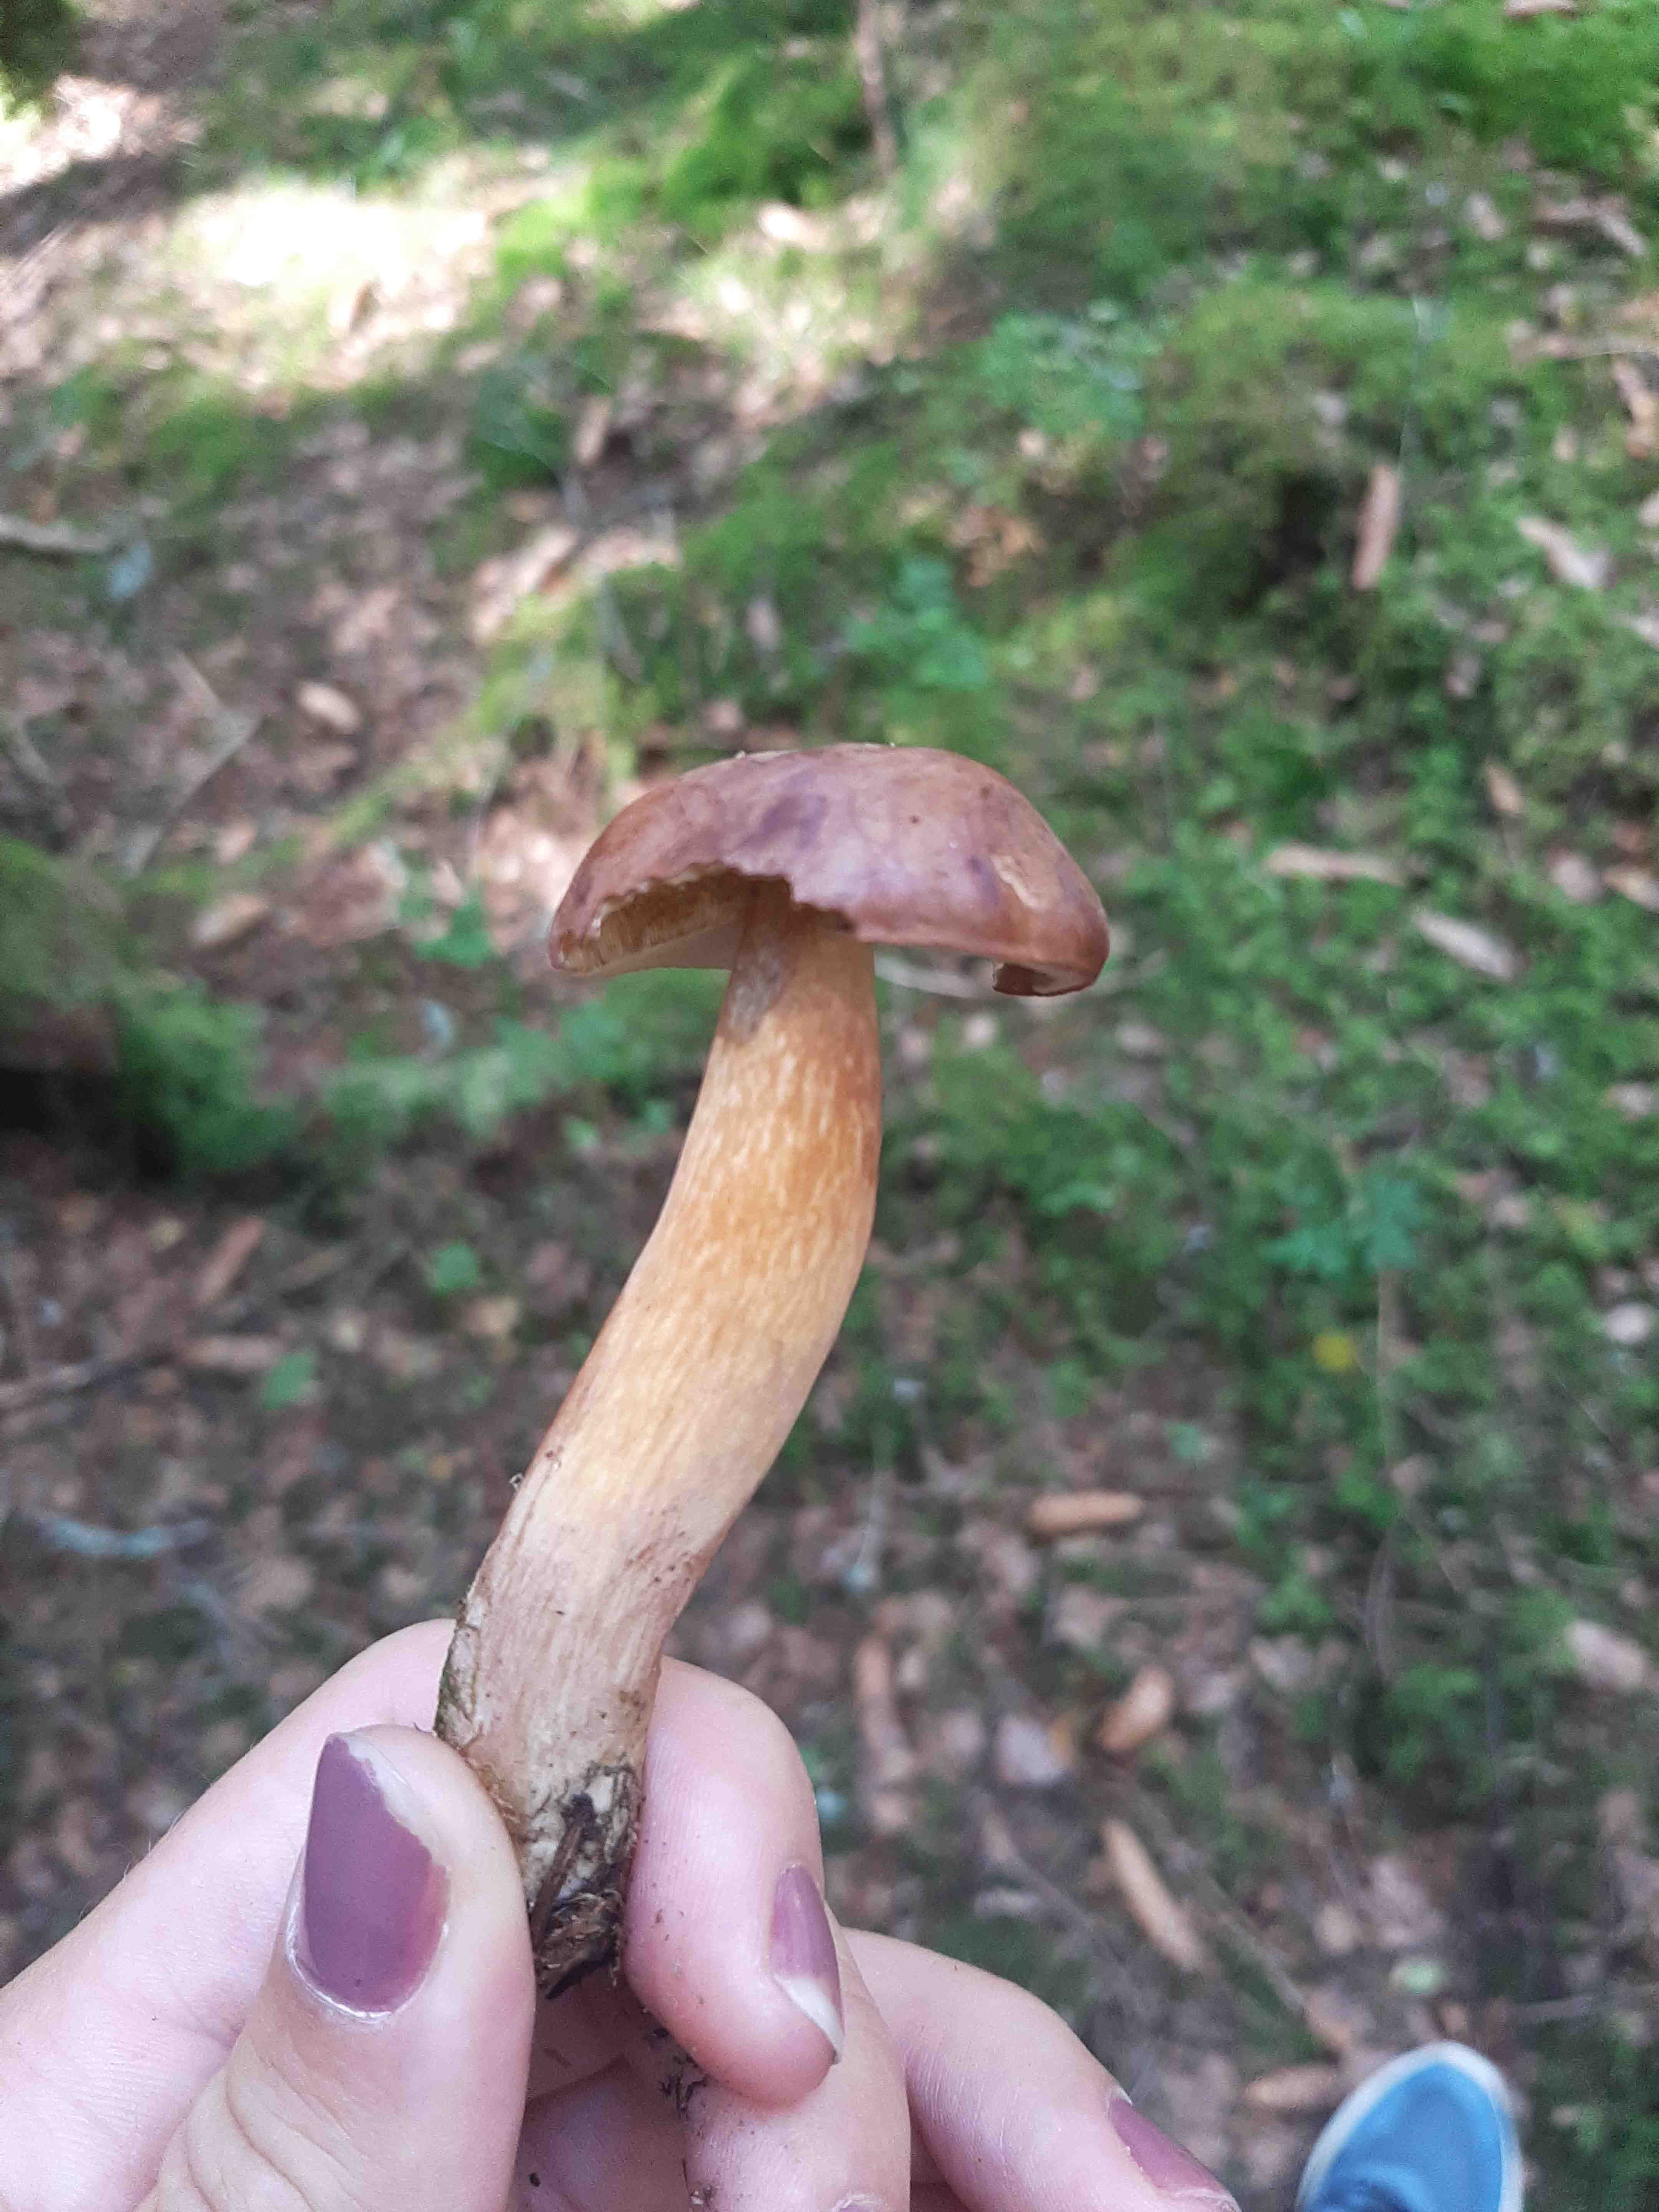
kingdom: Fungi
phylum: Basidiomycota
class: Agaricomycetes
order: Boletales
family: Boletaceae
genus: Imleria
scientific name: Imleria badia
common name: brunstokket rørhat
